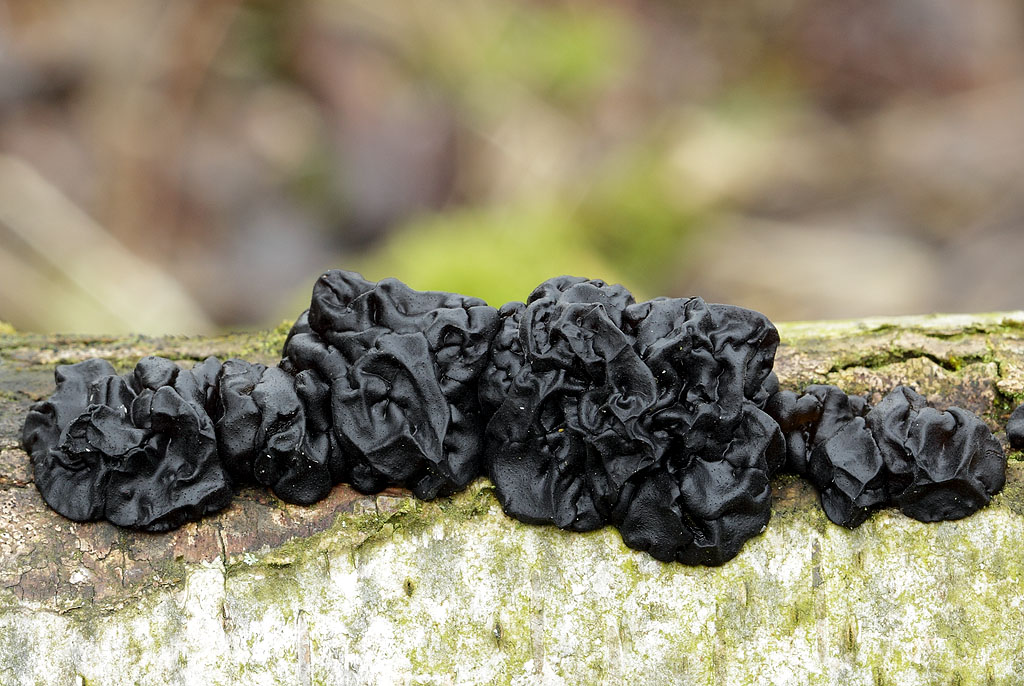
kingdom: Fungi
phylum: Basidiomycota
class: Agaricomycetes
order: Auriculariales
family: Auriculariaceae
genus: Exidia
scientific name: Exidia nigricans
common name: almindelig bævretop
